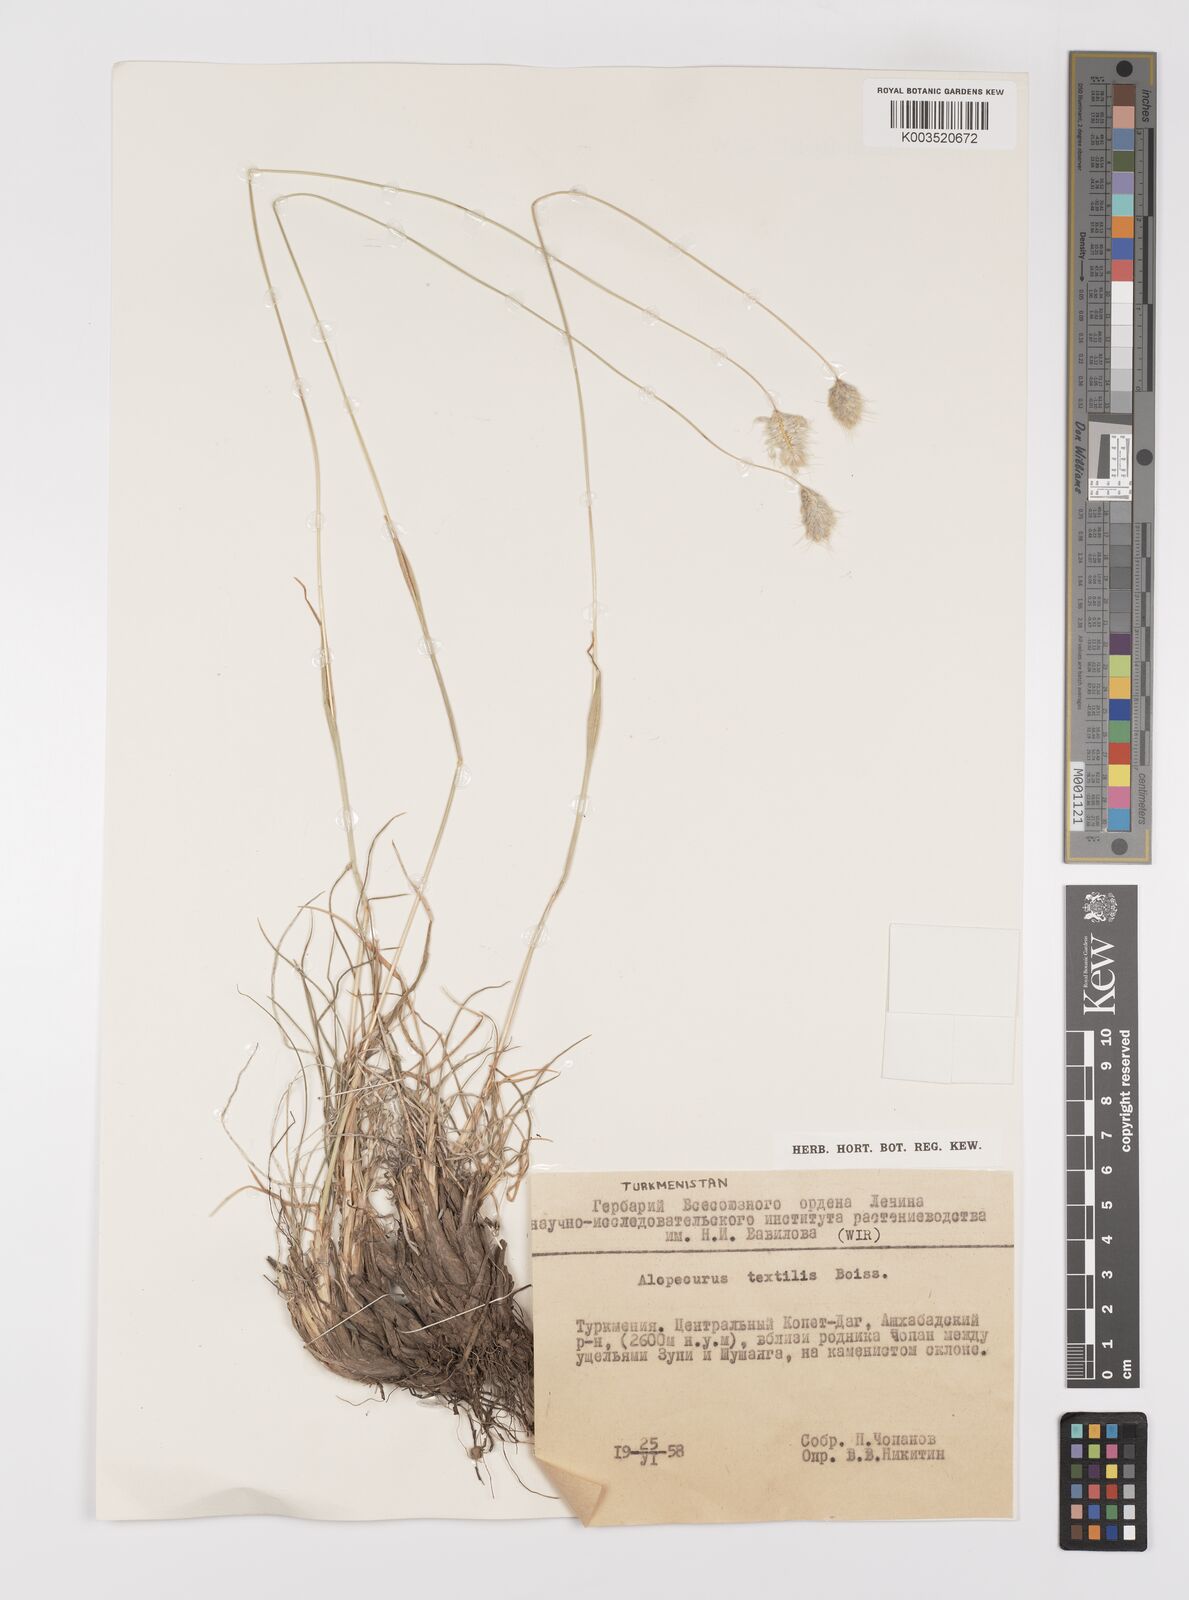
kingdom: Plantae
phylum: Tracheophyta
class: Liliopsida
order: Poales
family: Poaceae
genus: Alopecurus
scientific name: Alopecurus textilis
